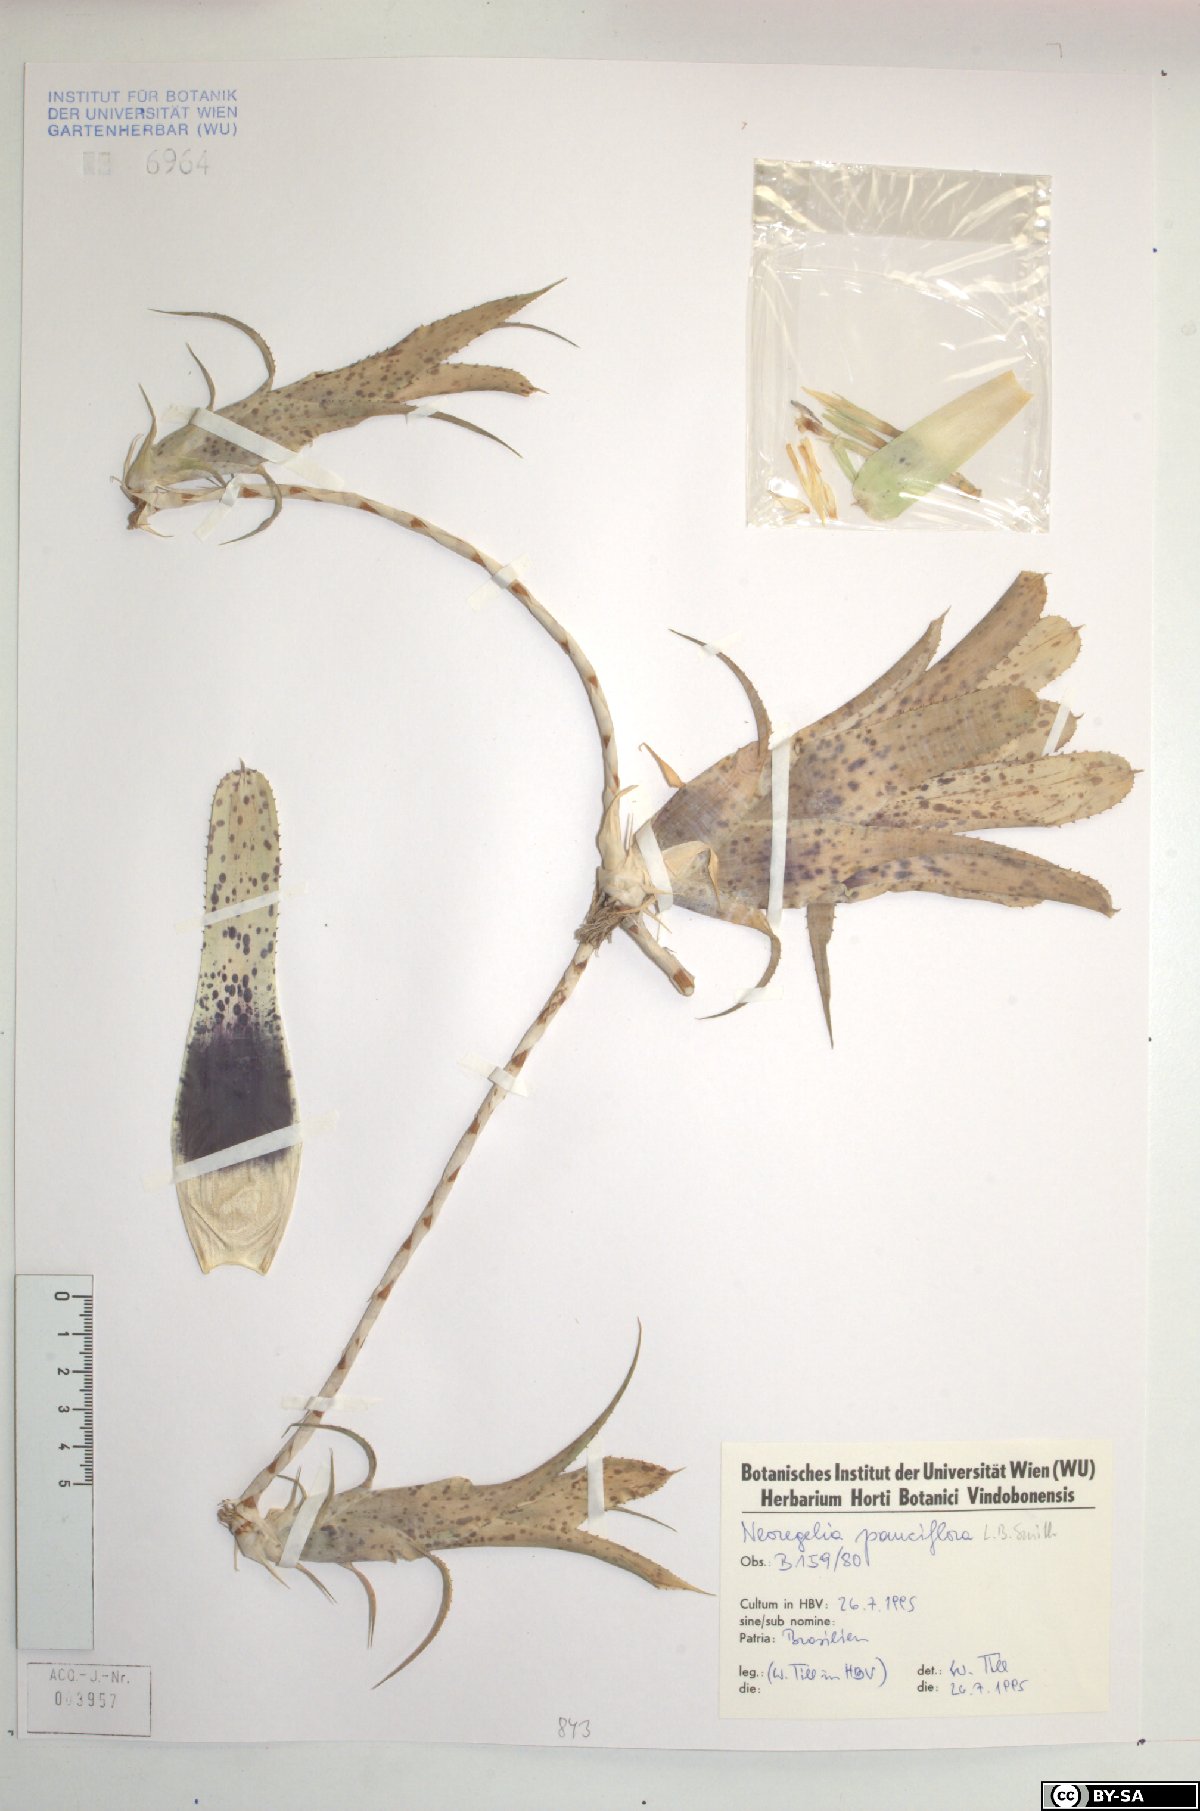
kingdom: Plantae
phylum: Tracheophyta
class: Liliopsida
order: Poales
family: Bromeliaceae
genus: Neoregelia
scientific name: Neoregelia pauciflora
